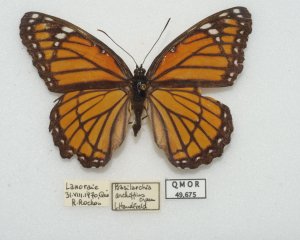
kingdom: Animalia
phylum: Arthropoda
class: Insecta
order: Lepidoptera
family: Nymphalidae
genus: Limenitis
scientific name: Limenitis archippus
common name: Viceroy
